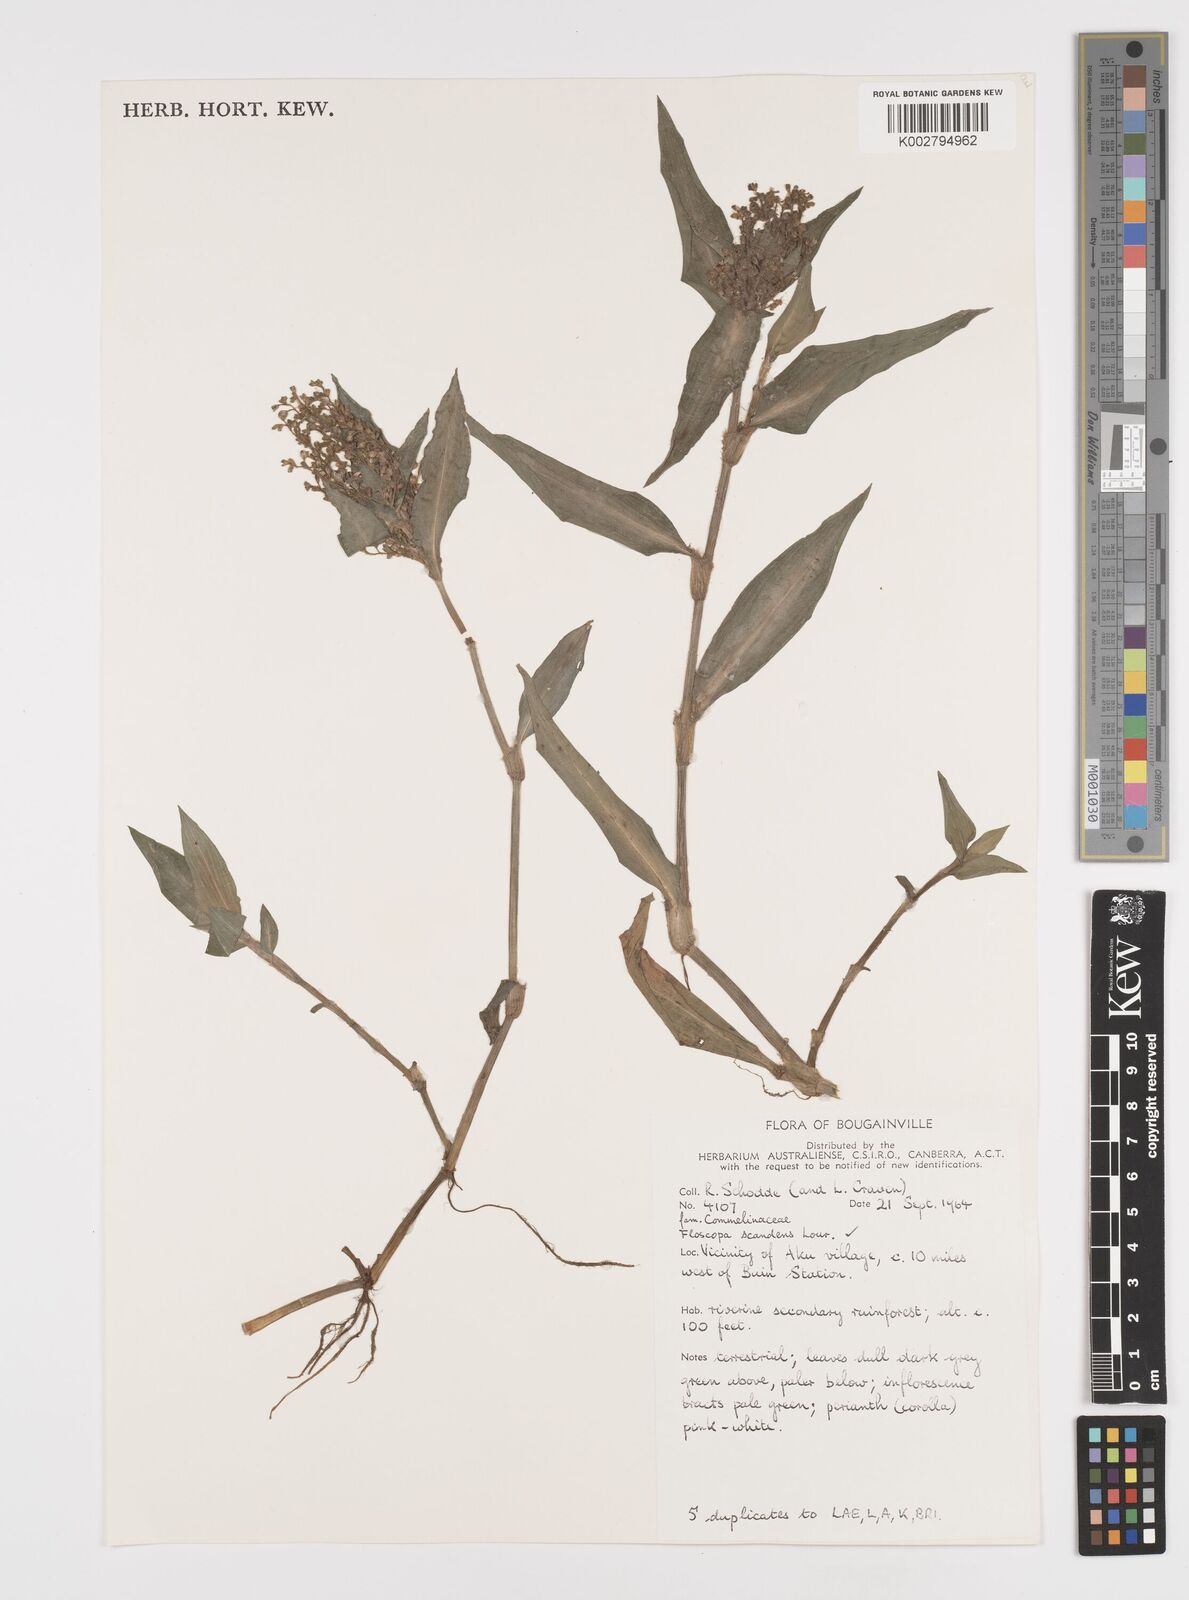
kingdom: Plantae
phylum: Tracheophyta
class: Liliopsida
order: Commelinales
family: Commelinaceae
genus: Floscopa
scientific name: Floscopa scandens
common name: Climbing flower cup
